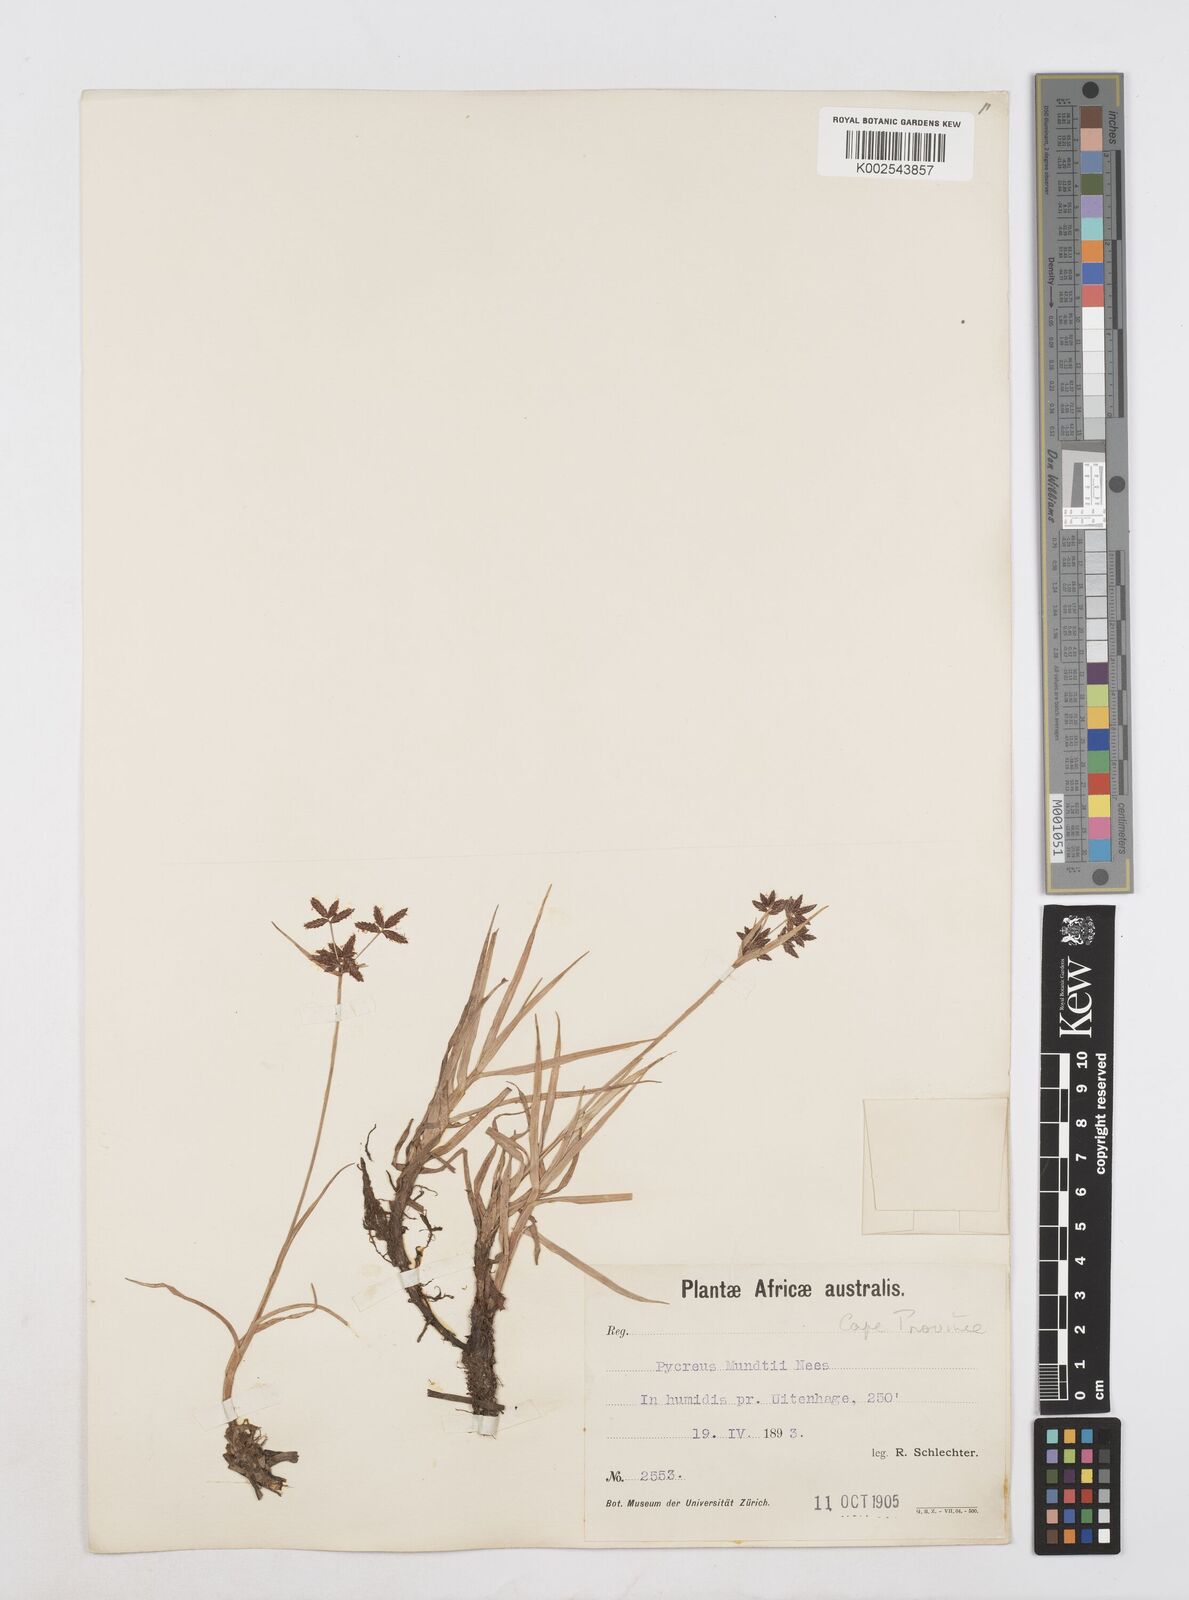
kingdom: Plantae
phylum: Tracheophyta
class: Liliopsida
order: Poales
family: Cyperaceae
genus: Cyperus
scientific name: Cyperus mundii
